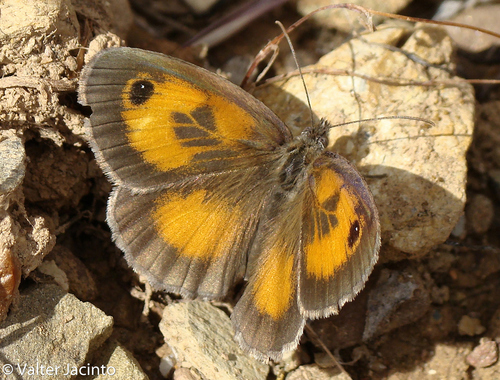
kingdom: Animalia
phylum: Arthropoda
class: Insecta
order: Lepidoptera
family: Nymphalidae
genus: Pyronia
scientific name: Pyronia cecilia
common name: Southern gatekeeper
